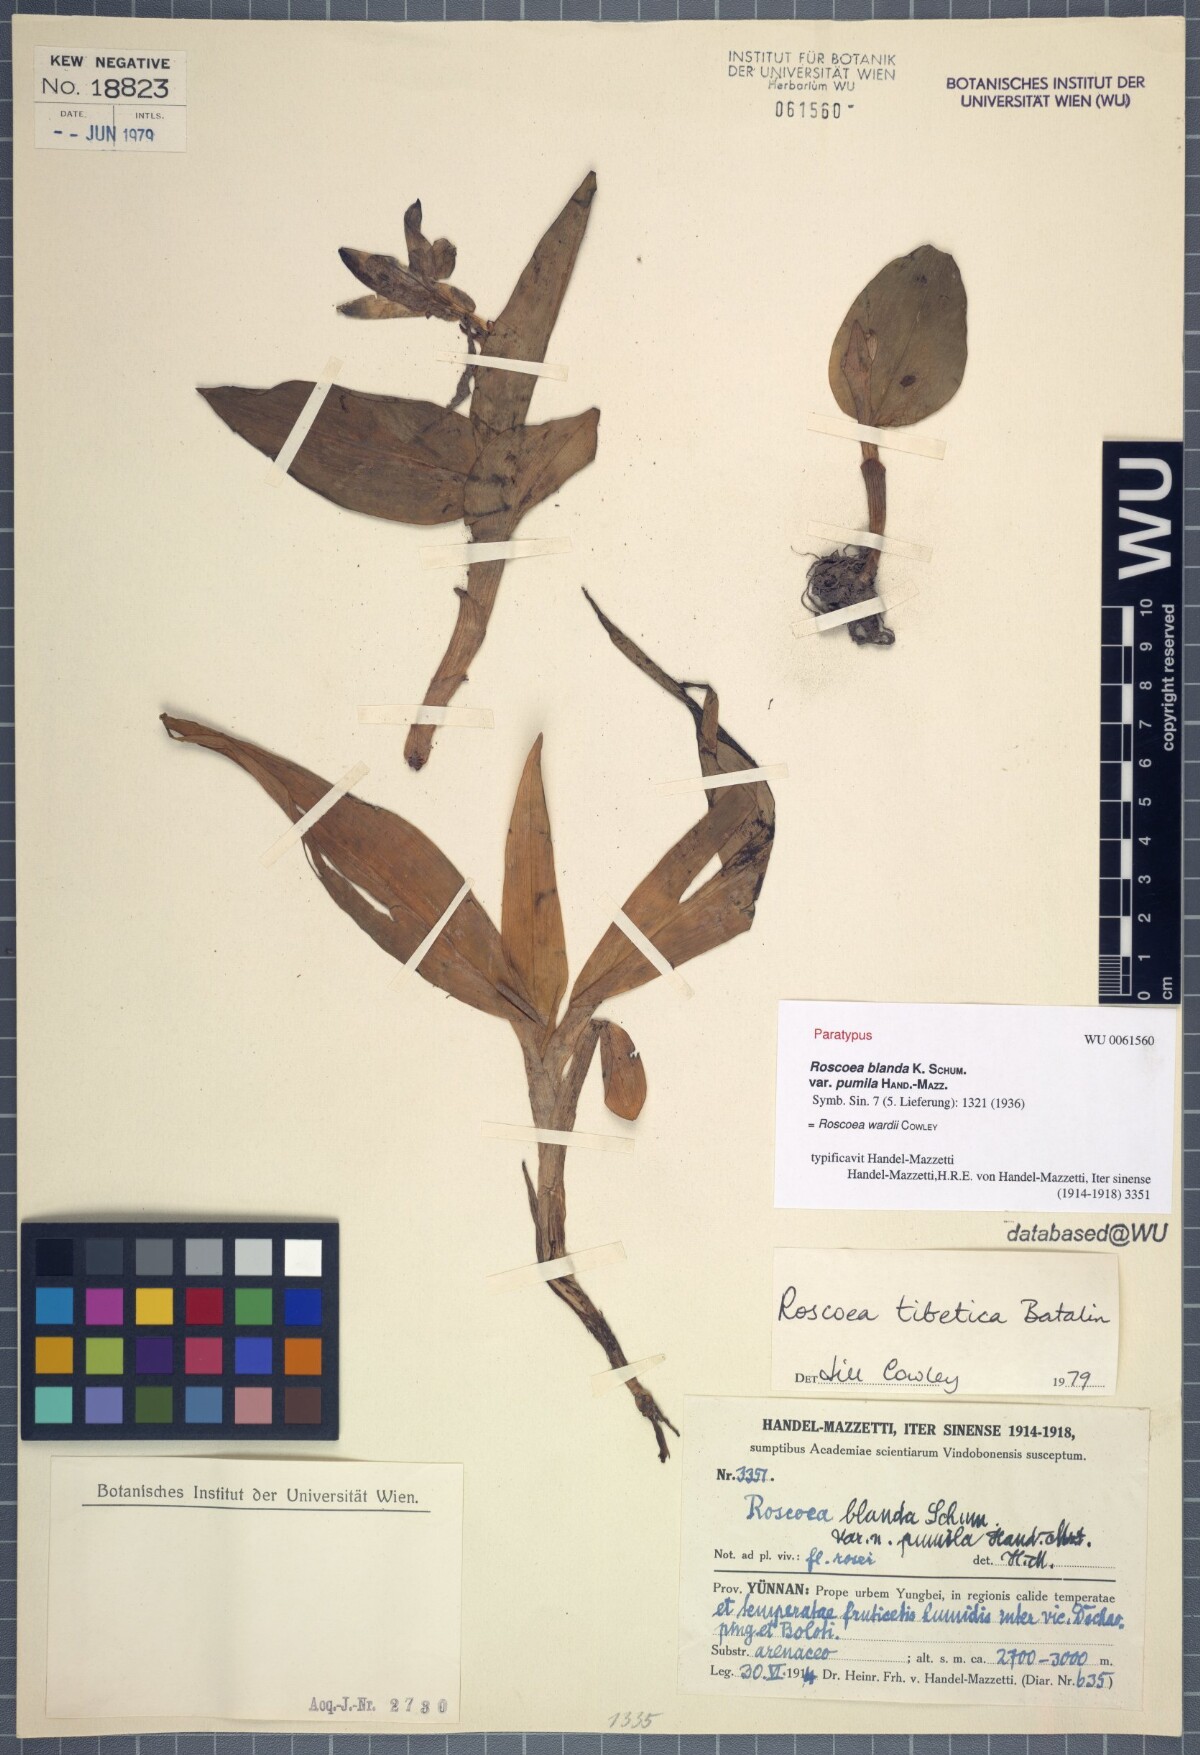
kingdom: Plantae
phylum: Tracheophyta
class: Liliopsida
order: Zingiberales
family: Zingiberaceae
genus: Roscoea
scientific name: Roscoea wardii
